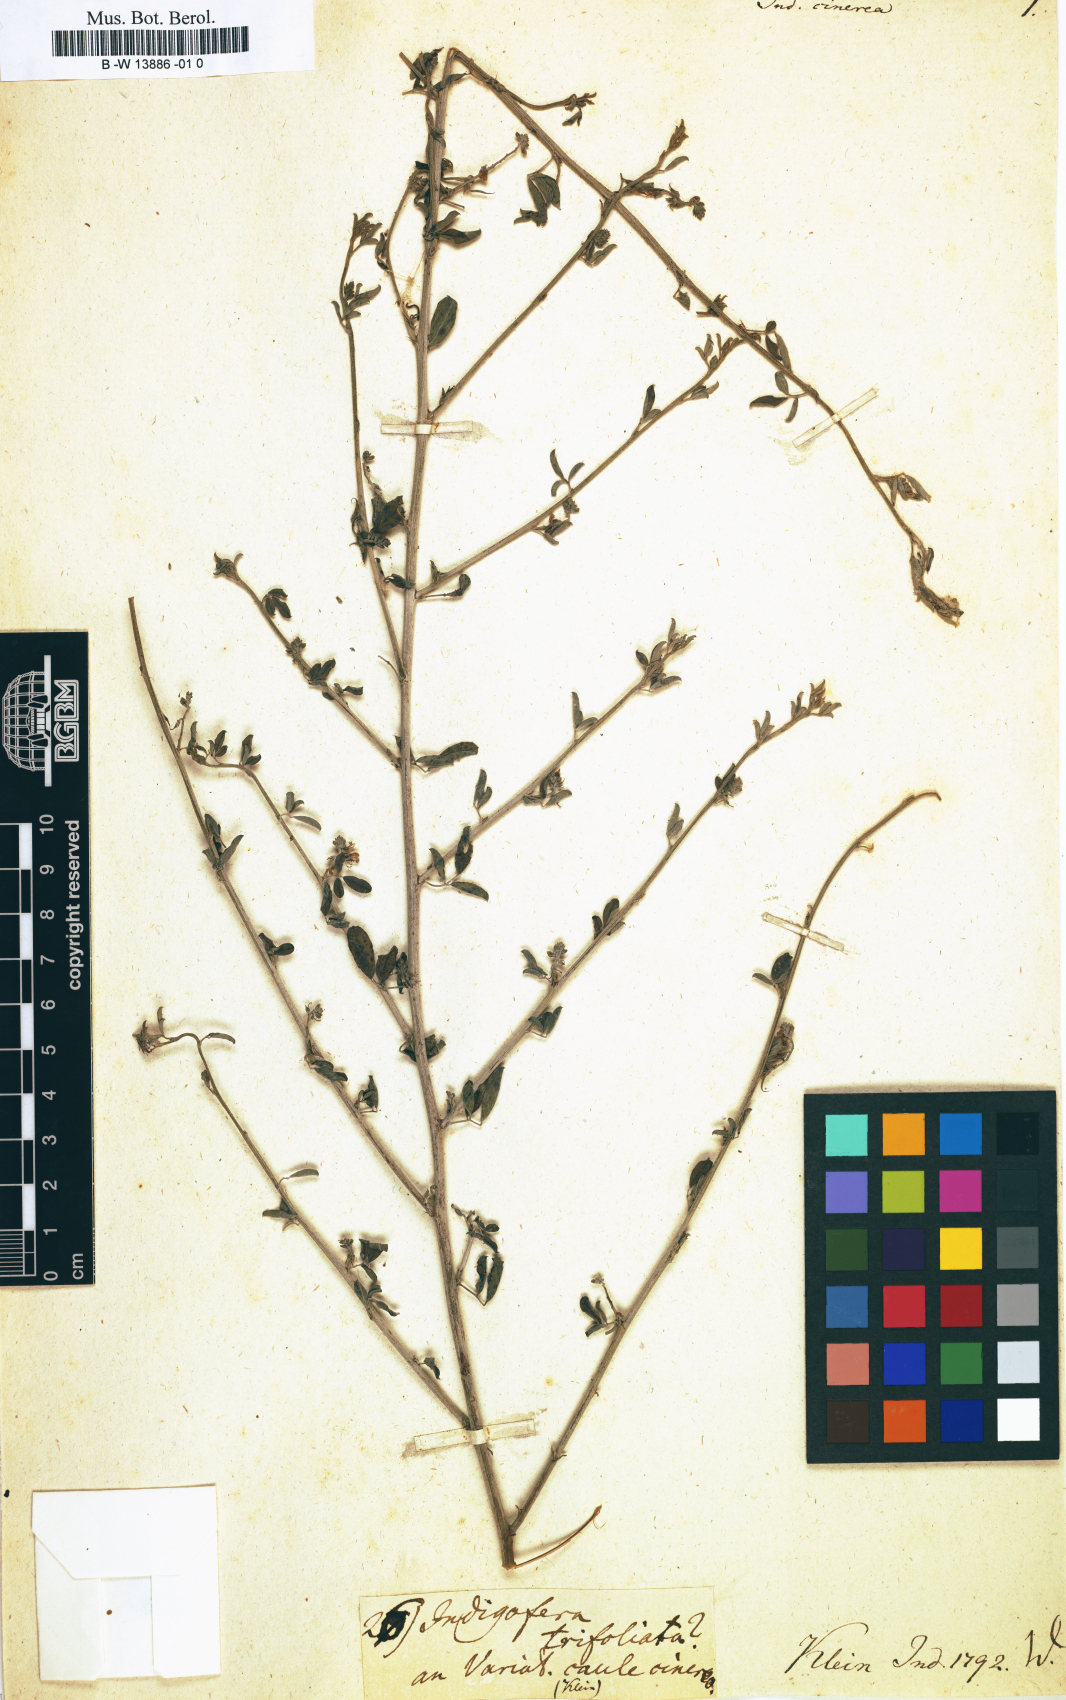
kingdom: Plantae
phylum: Tracheophyta
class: Magnoliopsida
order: Fabales
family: Fabaceae
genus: Indigofera
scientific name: Indigofera miniata
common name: Coast indigo
